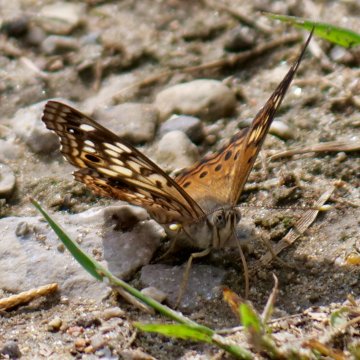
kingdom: Animalia
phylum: Arthropoda
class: Insecta
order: Lepidoptera
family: Nymphalidae
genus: Asterocampa
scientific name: Asterocampa celtis
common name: Hackberry Emperor
